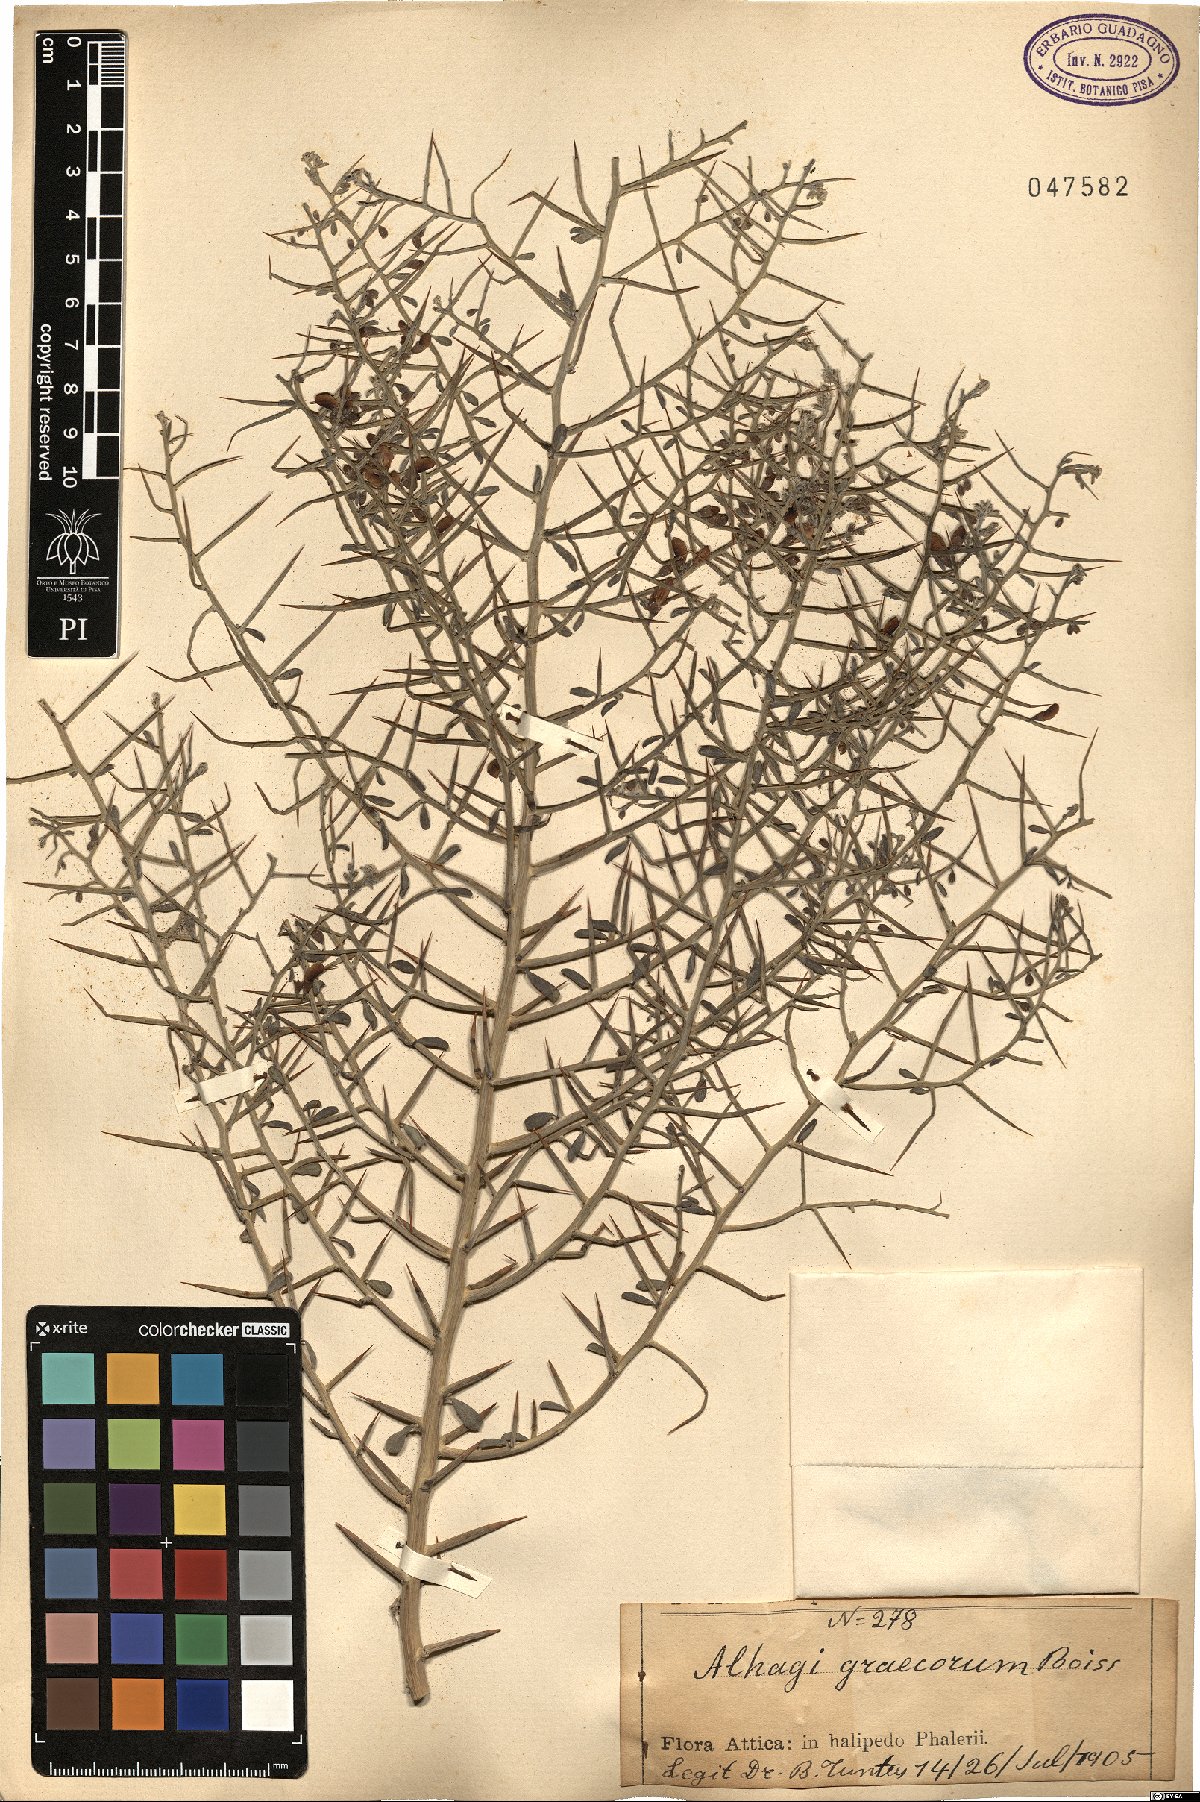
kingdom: Plantae
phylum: Tracheophyta
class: Magnoliopsida
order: Fabales
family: Fabaceae
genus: Alhagi
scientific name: Alhagi graecorum
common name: Persian mannaplant
